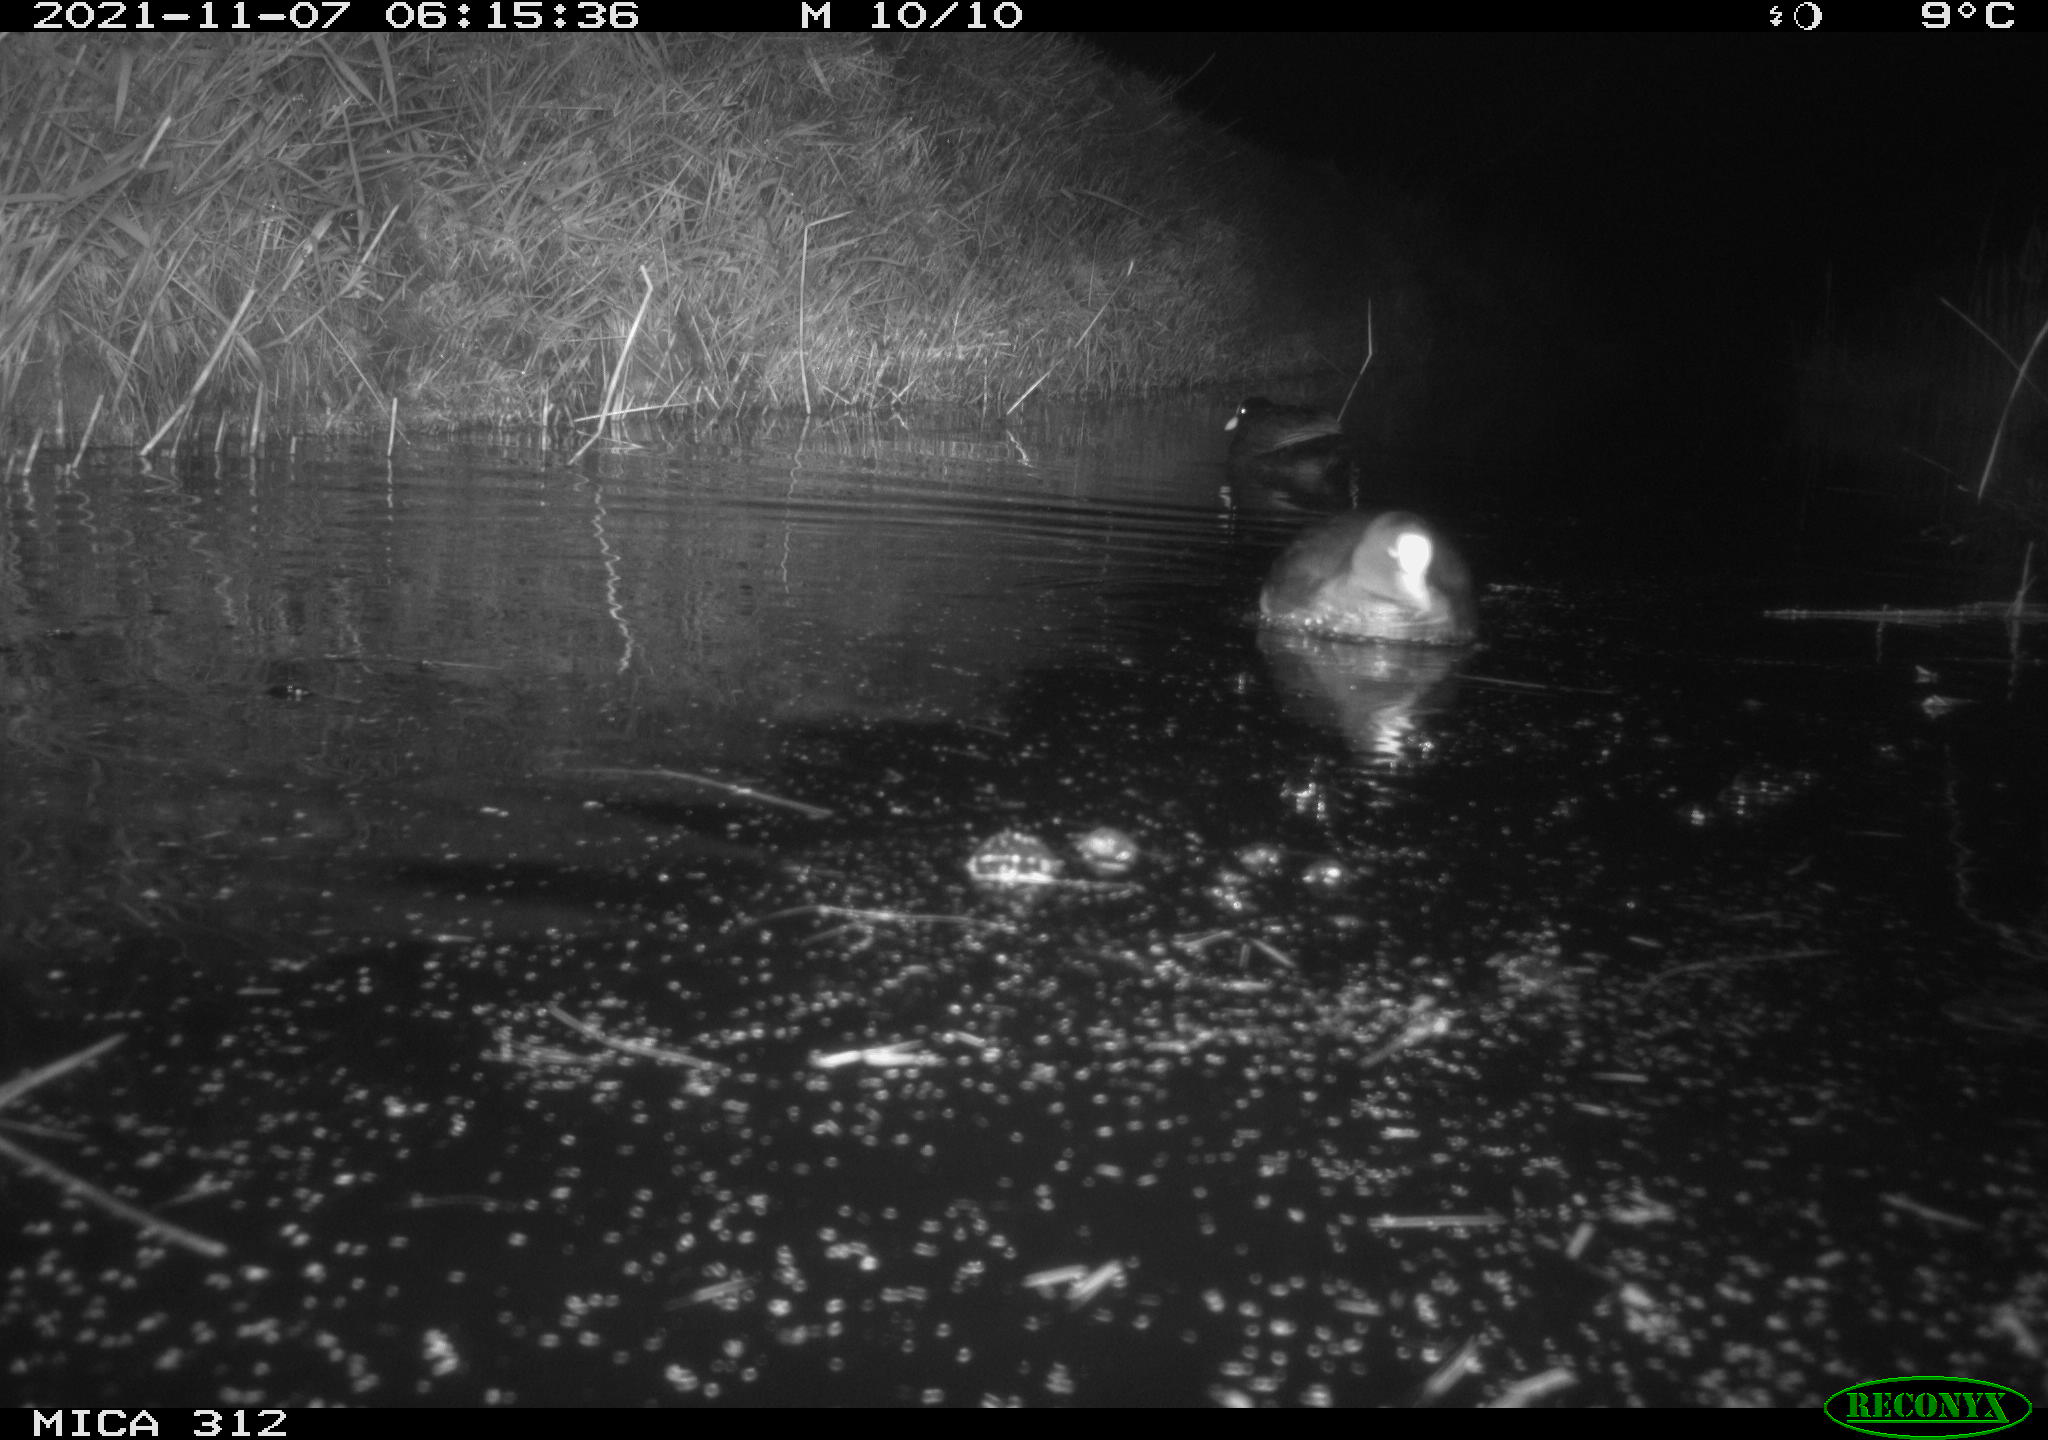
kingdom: Animalia
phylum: Chordata
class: Aves
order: Anseriformes
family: Anatidae
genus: Anas
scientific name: Anas
